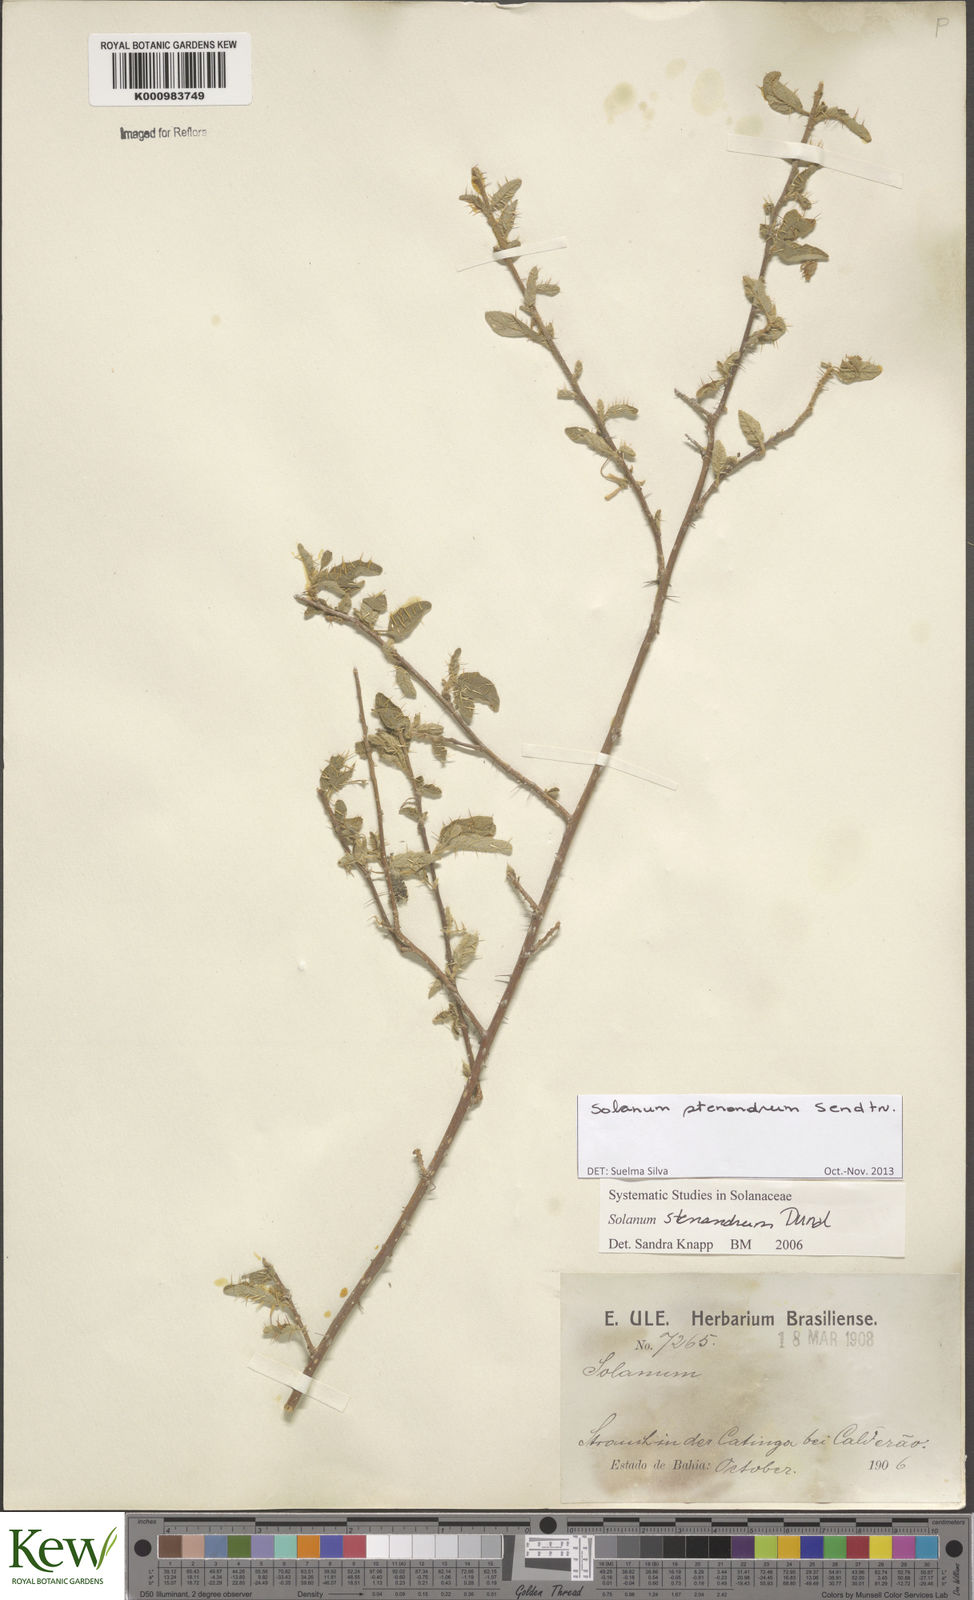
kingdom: Plantae
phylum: Tracheophyta
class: Magnoliopsida
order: Solanales
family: Solanaceae
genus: Solanum
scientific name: Solanum stenandrum
